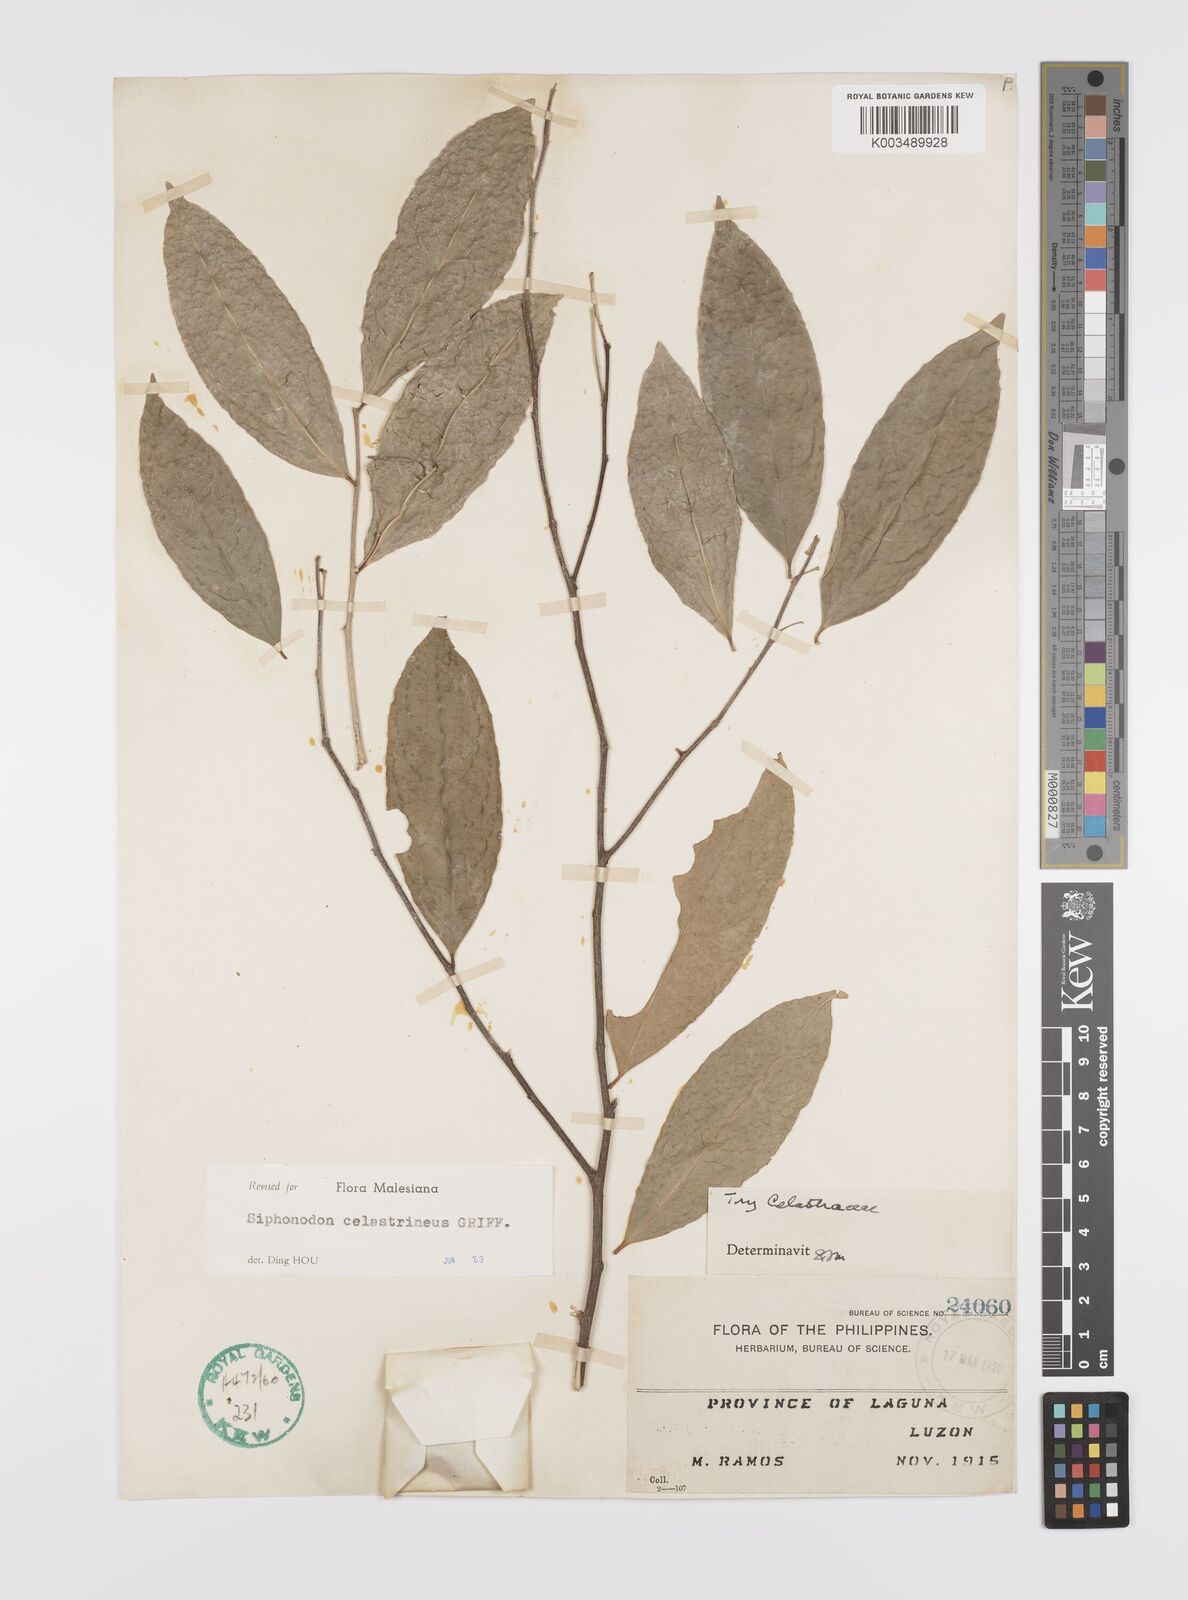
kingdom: Plantae
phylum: Tracheophyta
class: Magnoliopsida
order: Celastrales
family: Celastraceae
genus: Siphonodon
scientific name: Siphonodon celastrineus
